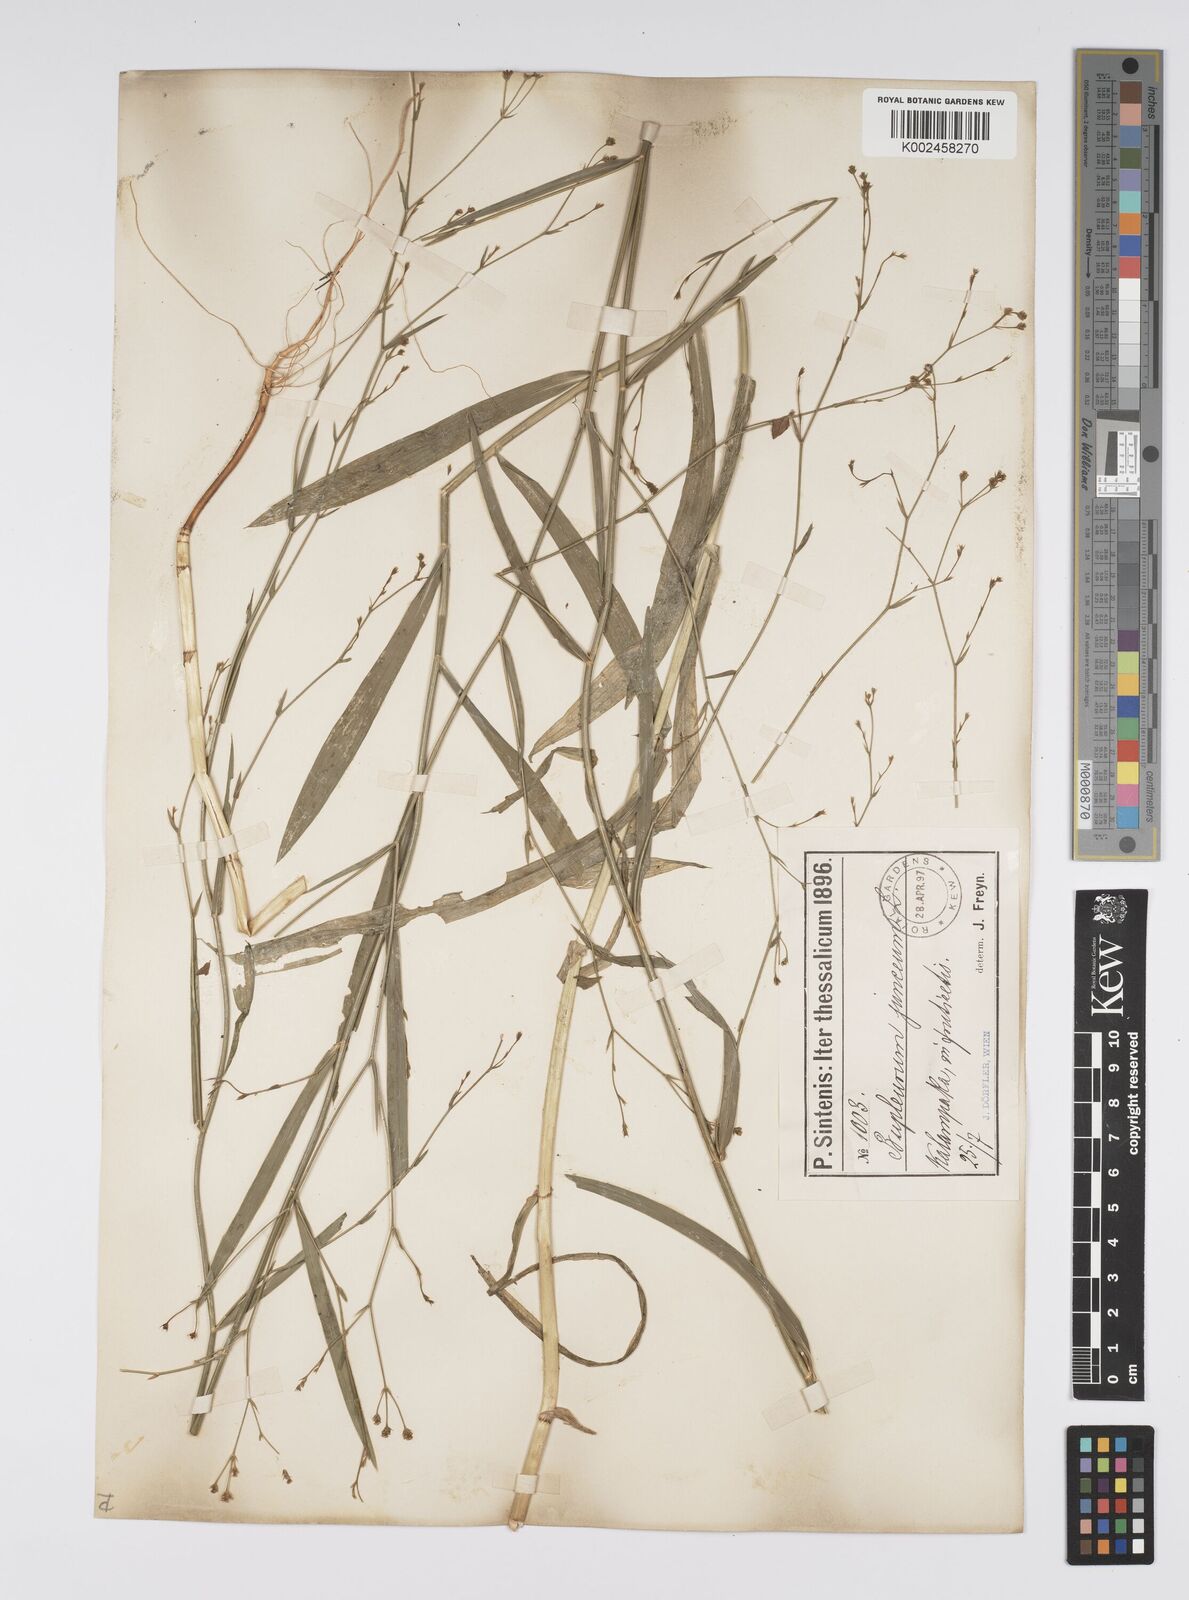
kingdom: Plantae
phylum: Tracheophyta
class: Magnoliopsida
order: Apiales
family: Apiaceae
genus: Bupleurum
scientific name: Bupleurum praealtum
